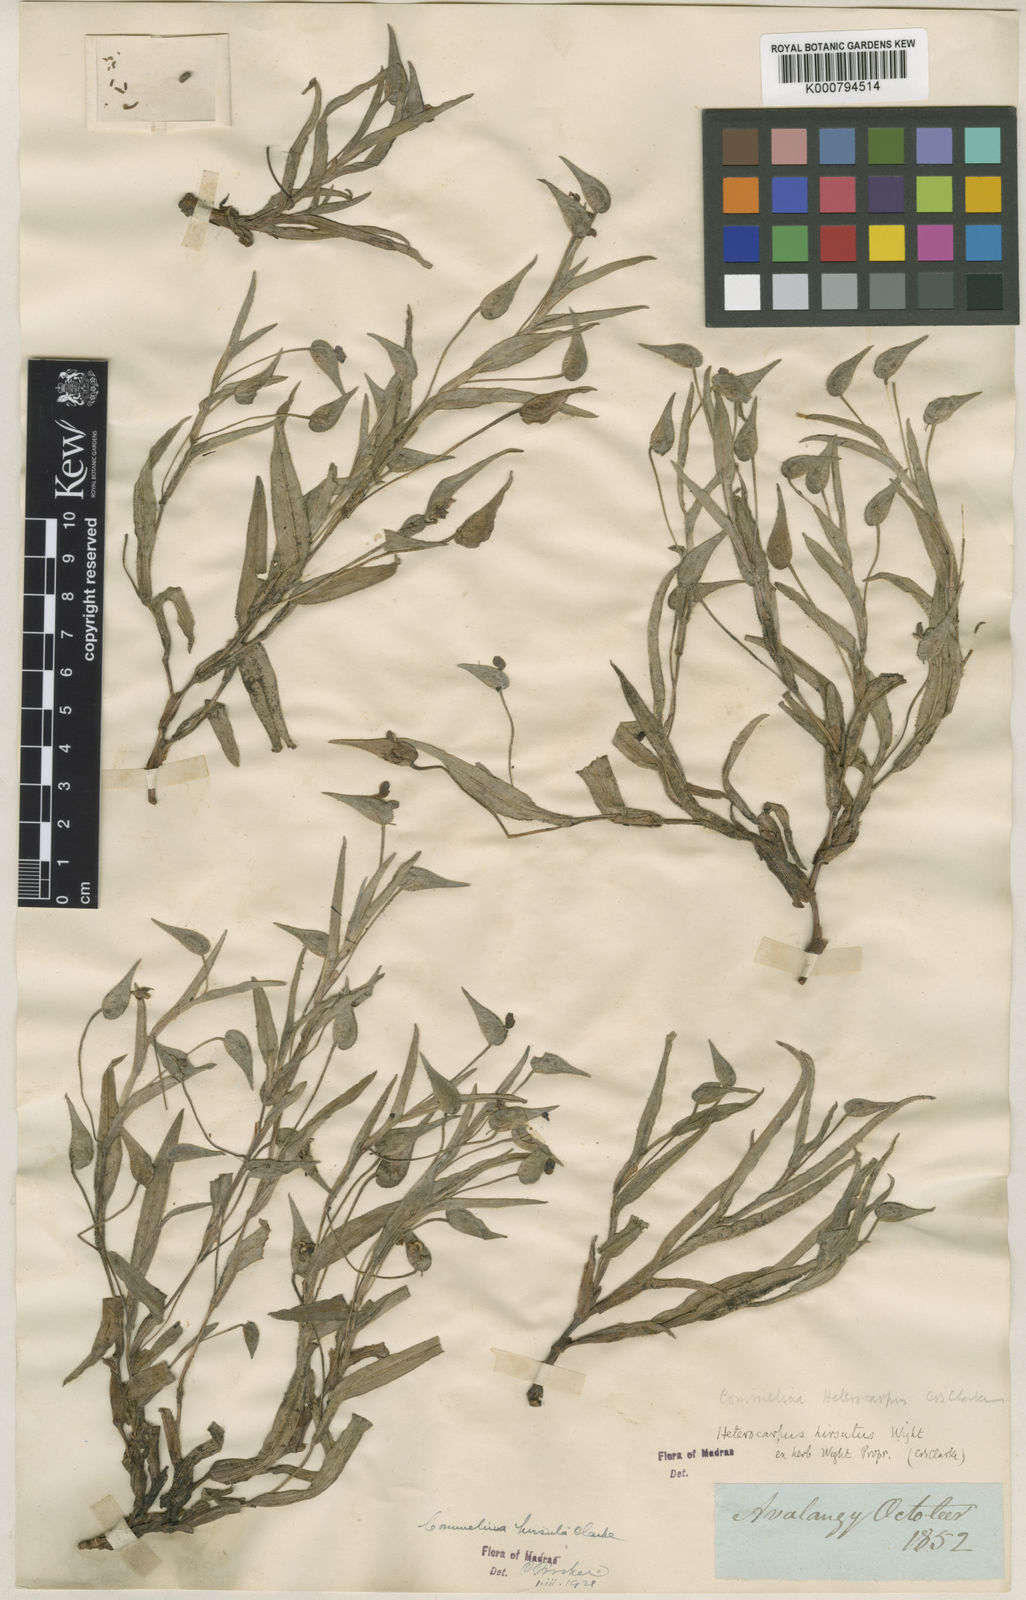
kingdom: Plantae
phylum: Tracheophyta
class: Liliopsida
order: Commelinales
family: Commelinaceae
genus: Commelina
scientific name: Commelina
